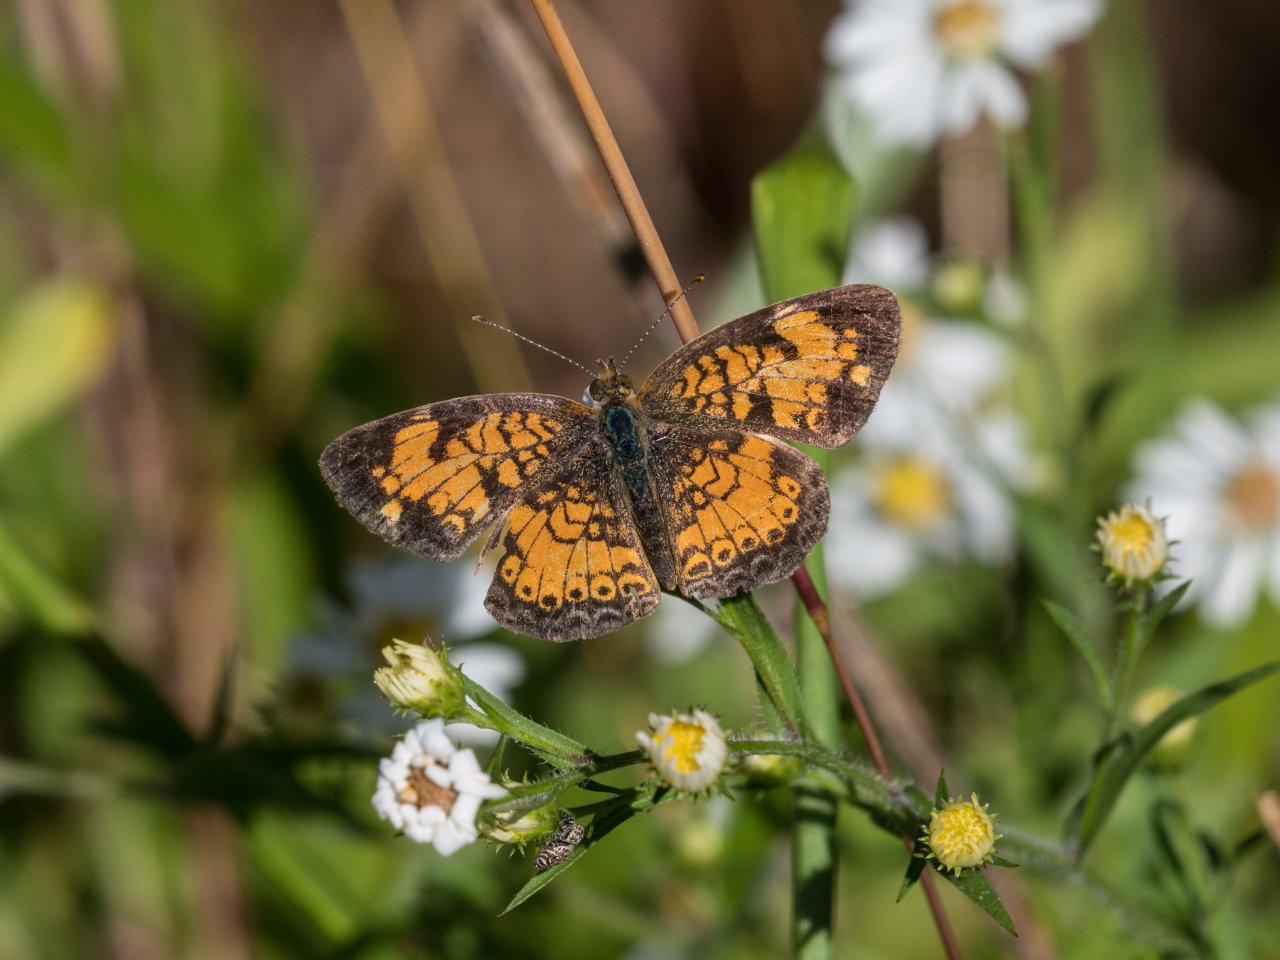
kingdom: Animalia
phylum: Arthropoda
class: Insecta
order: Lepidoptera
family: Nymphalidae
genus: Phyciodes
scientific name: Phyciodes tharos
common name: Pearl Crescent
